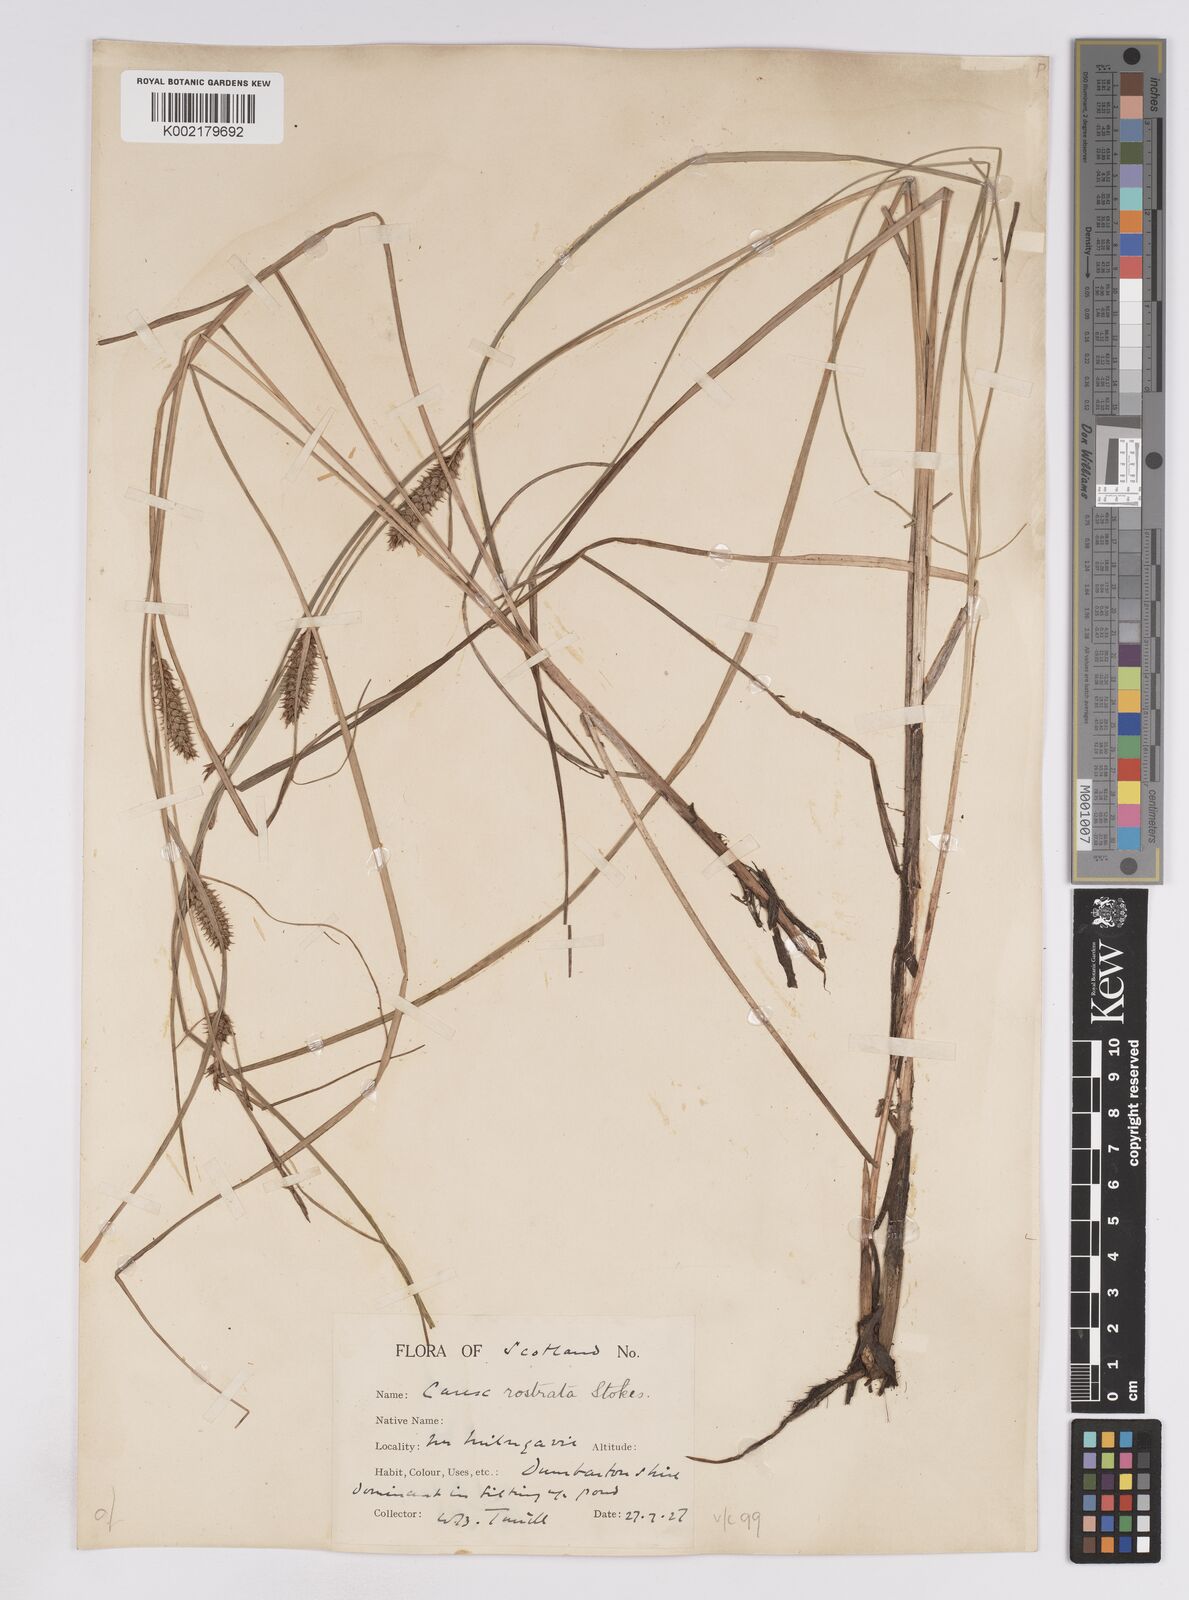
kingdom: Plantae
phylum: Tracheophyta
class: Liliopsida
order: Poales
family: Cyperaceae
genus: Carex
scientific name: Carex rostrata
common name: Bottle sedge
